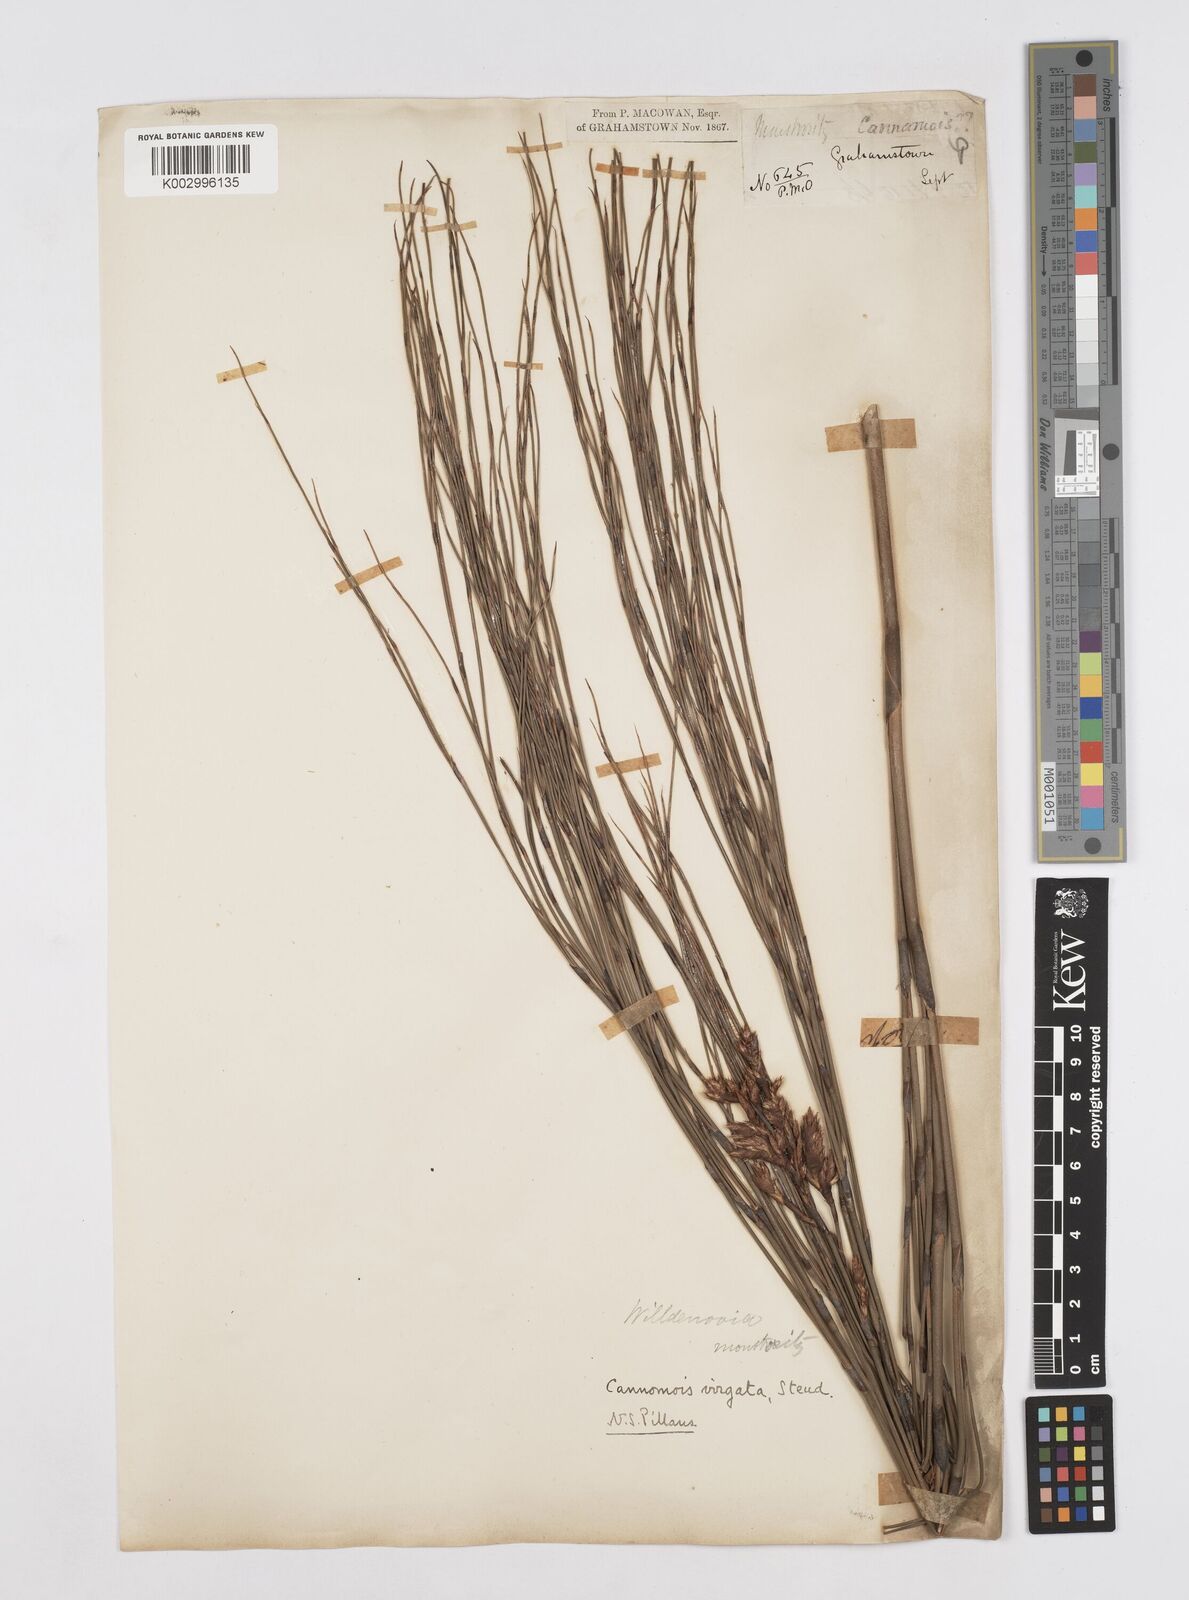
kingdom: Plantae
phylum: Tracheophyta
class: Liliopsida
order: Poales
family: Restionaceae
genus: Cannomois
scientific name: Cannomois virgata
